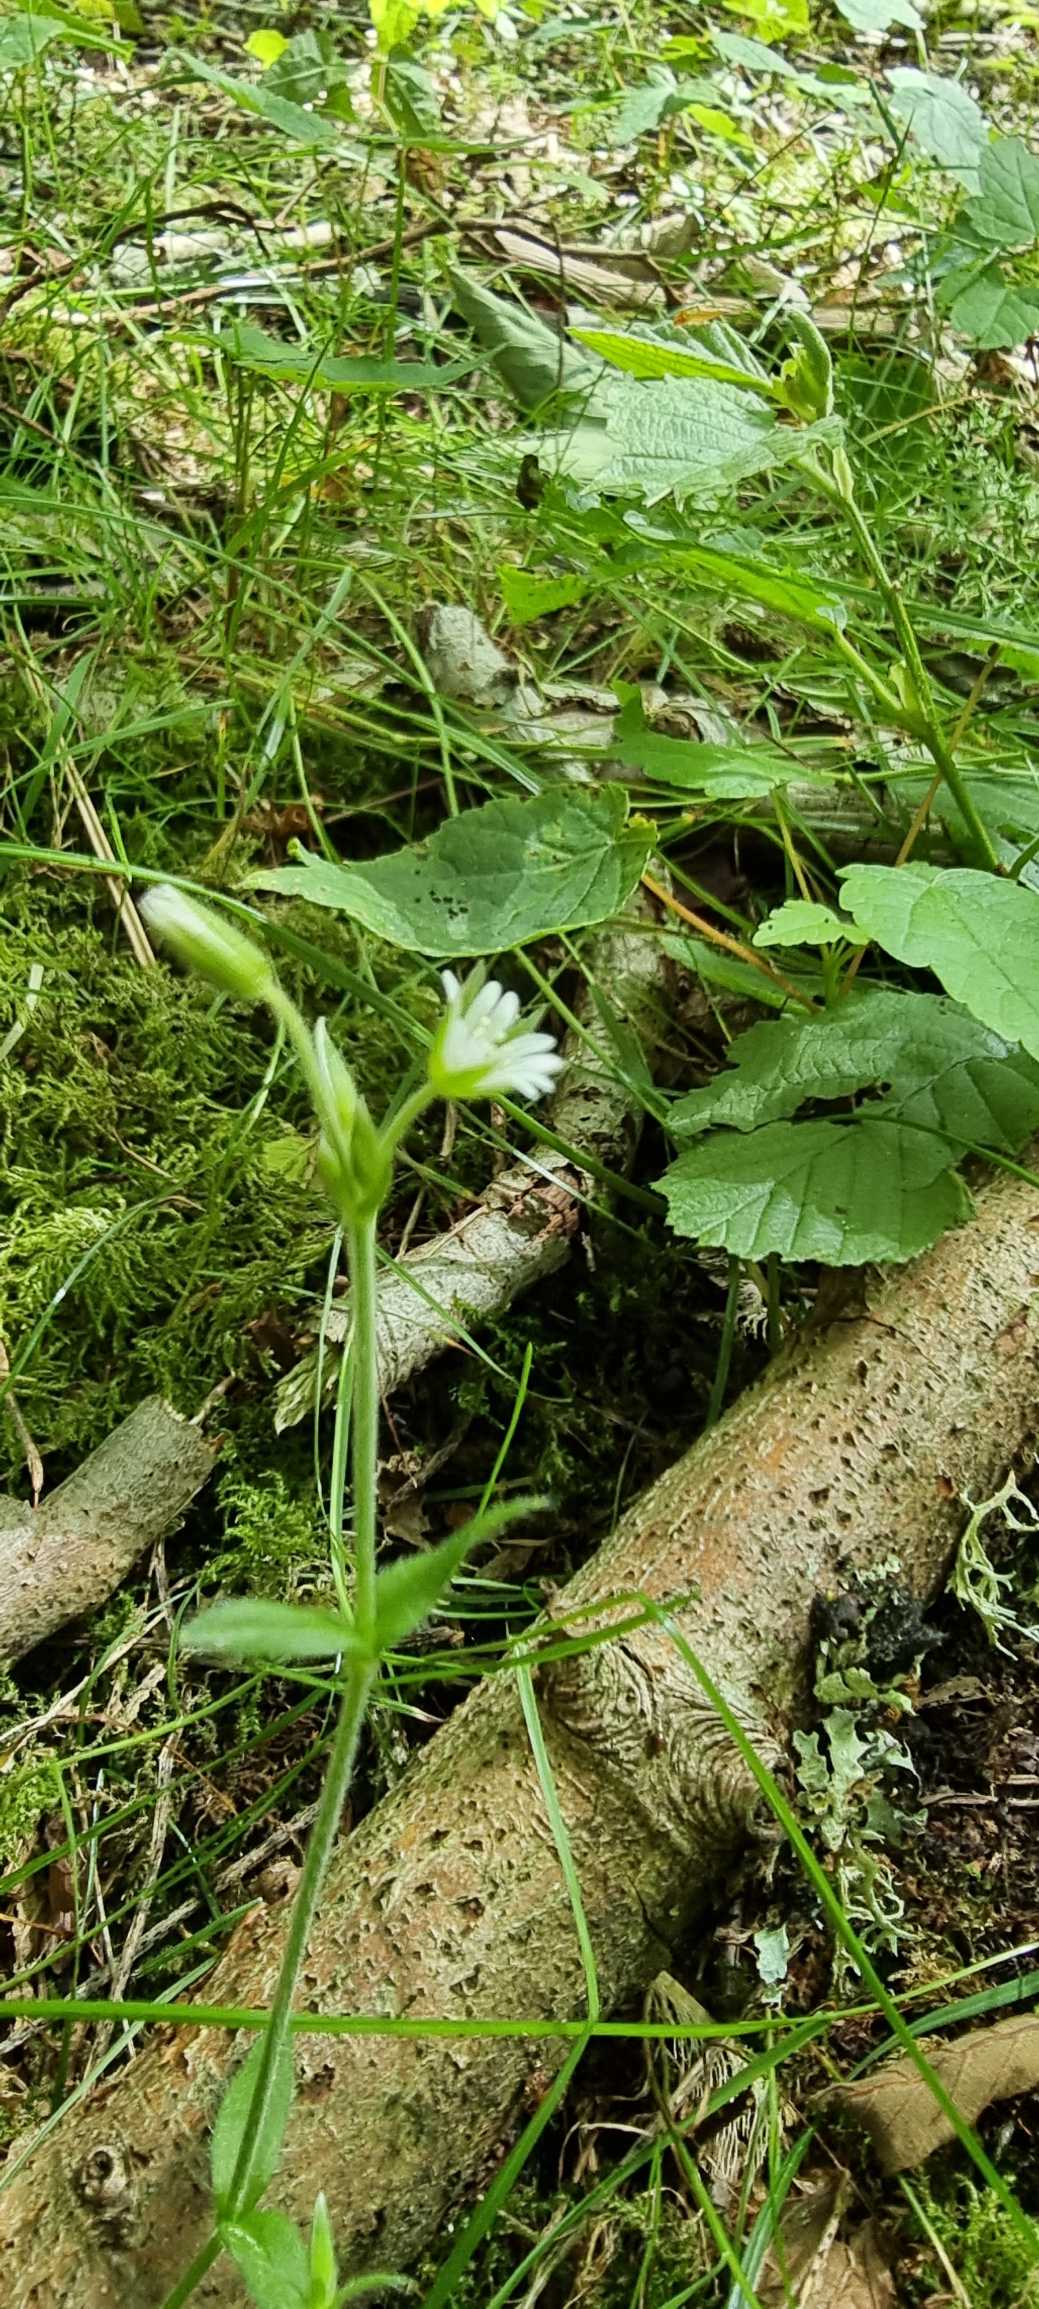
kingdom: Plantae
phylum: Tracheophyta
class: Magnoliopsida
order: Caryophyllales
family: Caryophyllaceae
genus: Cerastium
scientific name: Cerastium holosteoides
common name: Almindelig hønsetarm (varietet)
